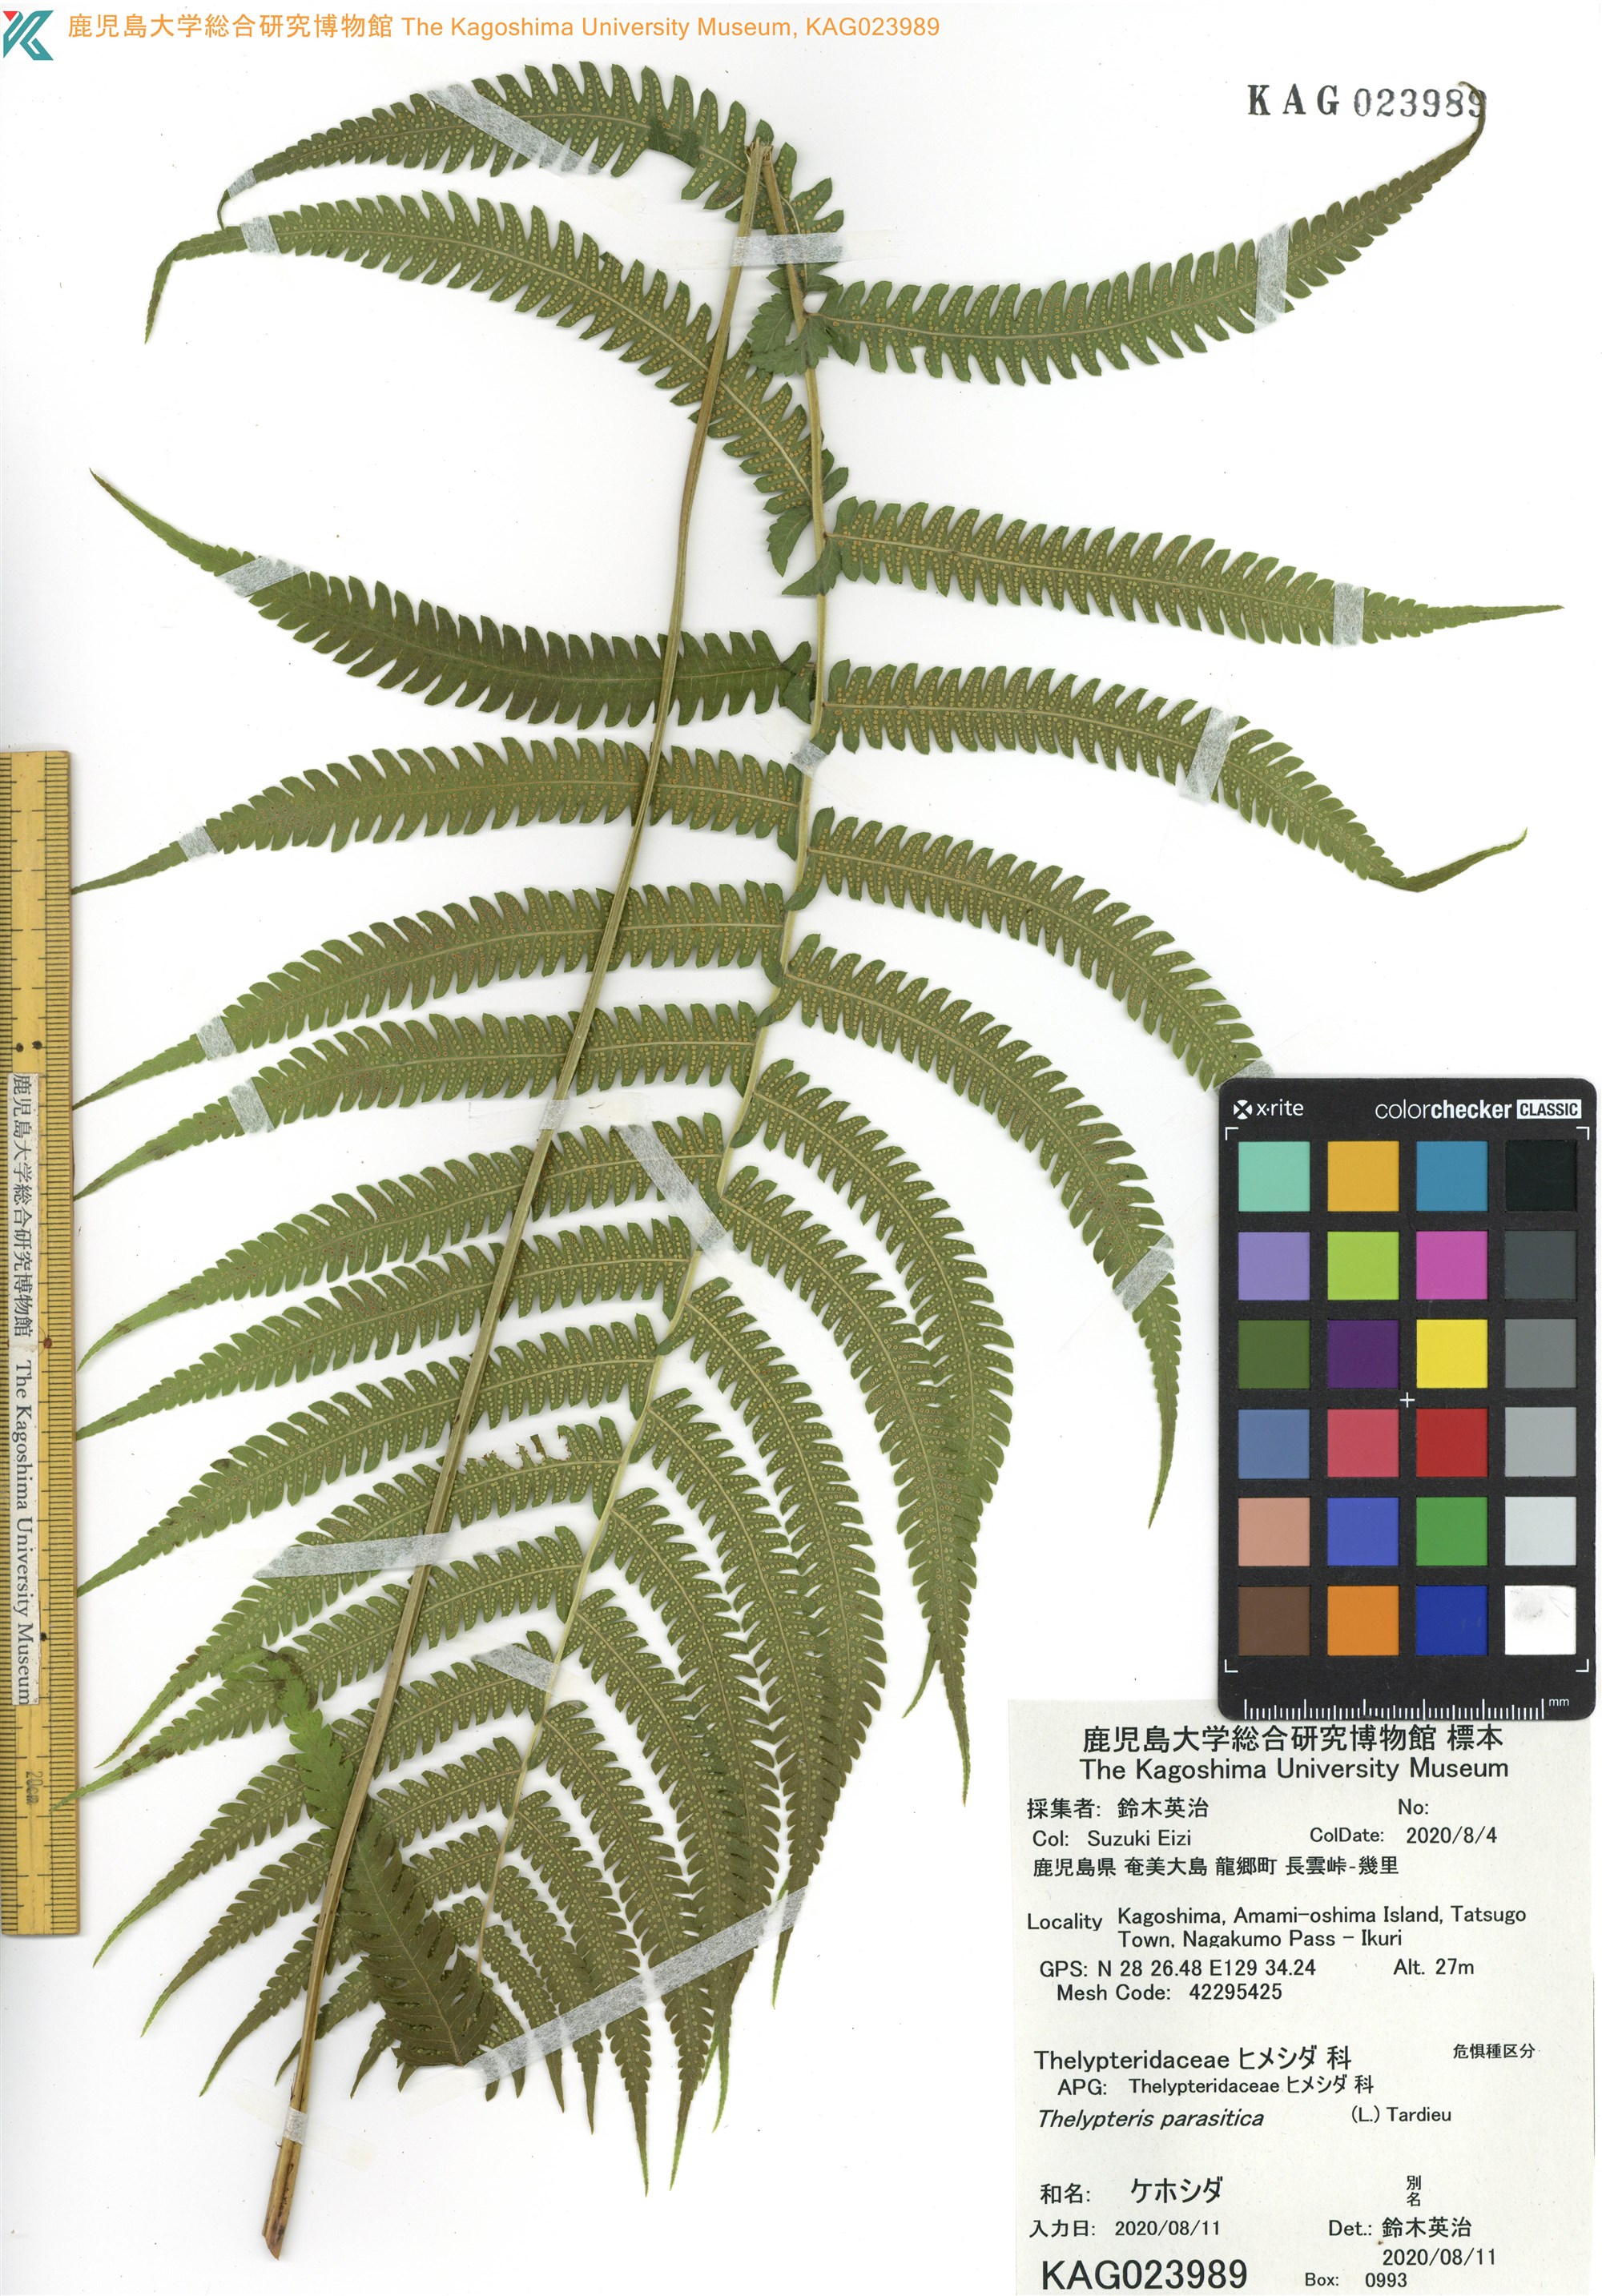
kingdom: Plantae
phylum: Tracheophyta
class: Polypodiopsida
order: Polypodiales
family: Thelypteridaceae
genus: Christella
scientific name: Christella parasitica
